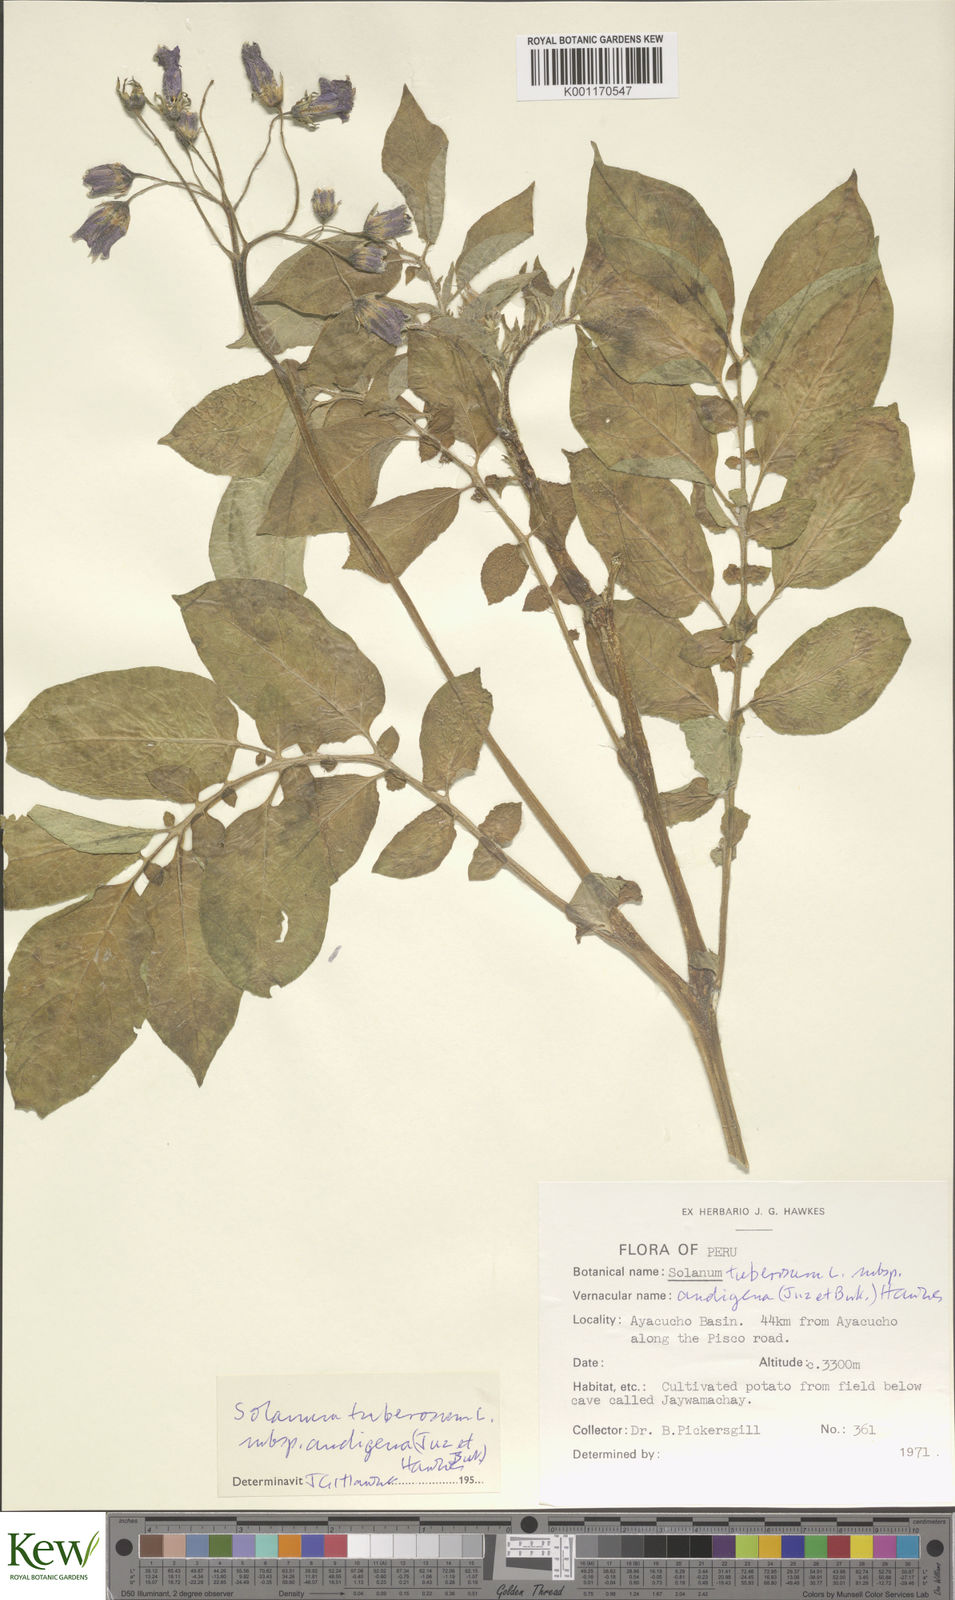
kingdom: Plantae
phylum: Tracheophyta
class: Magnoliopsida
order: Solanales
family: Solanaceae
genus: Solanum
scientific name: Solanum tuberosum
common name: Potato
